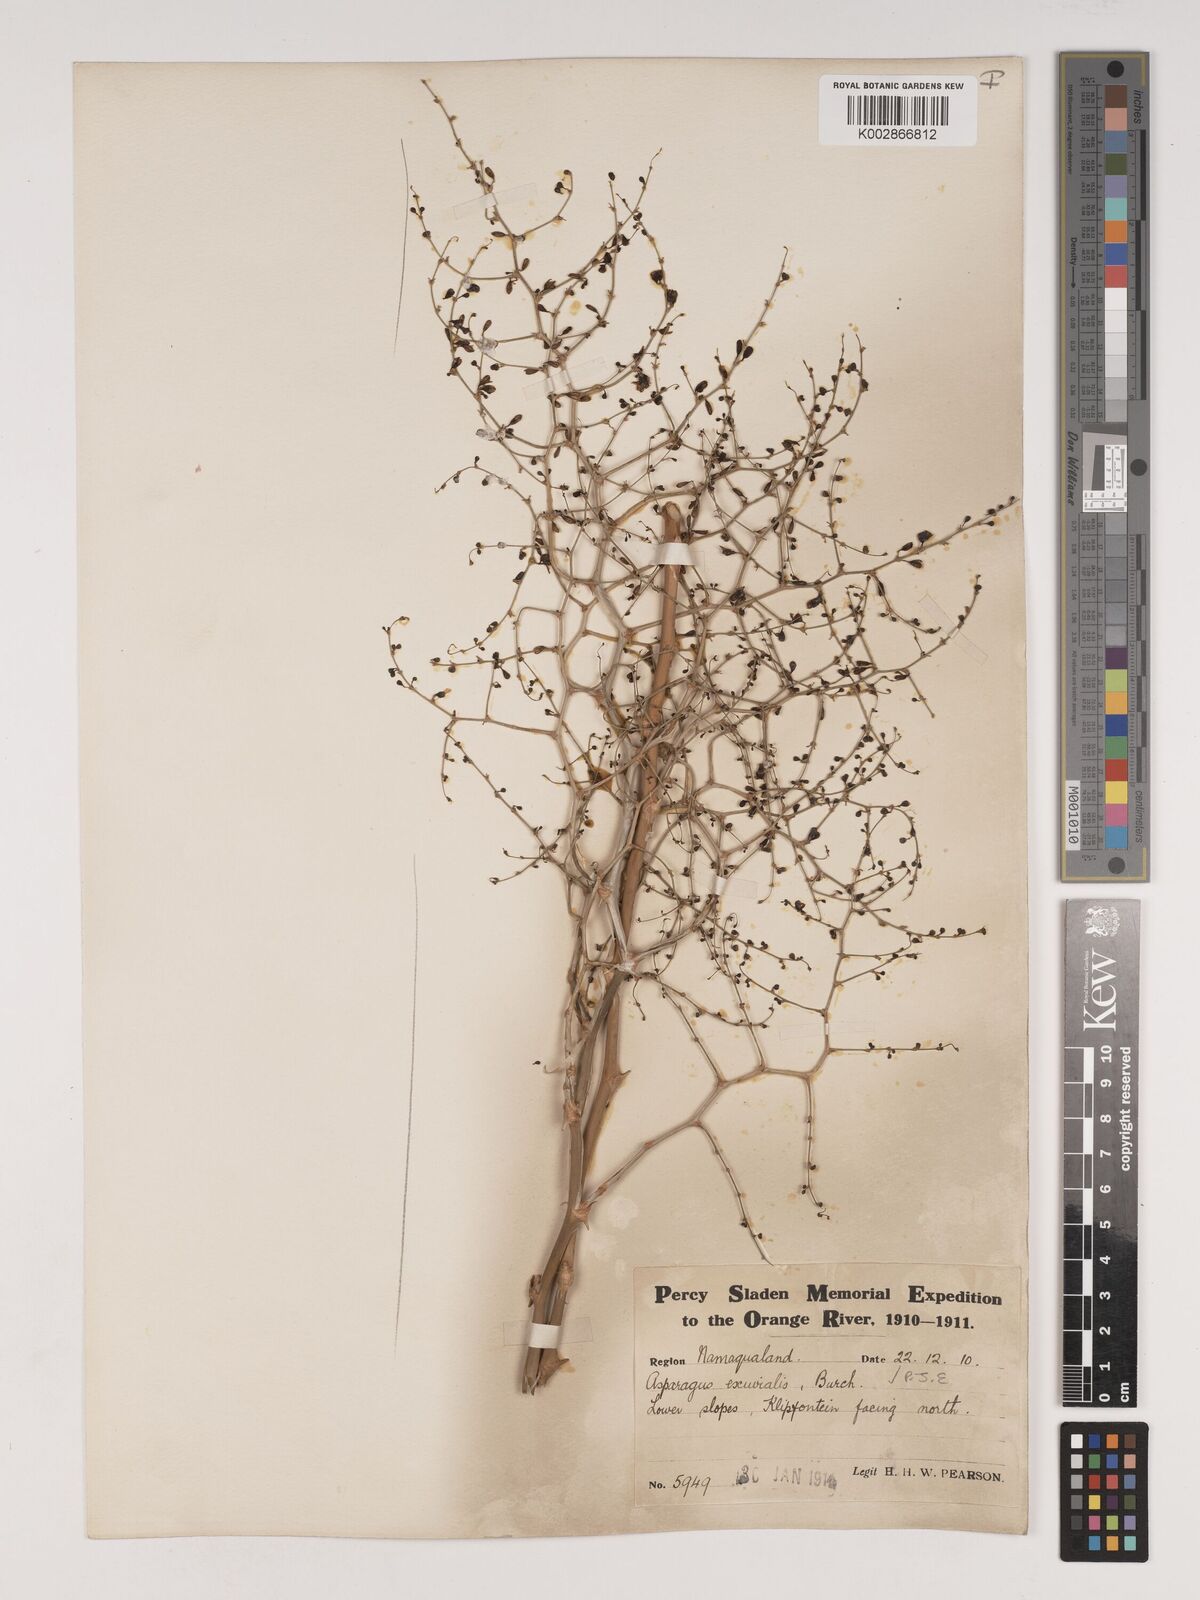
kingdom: Plantae
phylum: Tracheophyta
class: Liliopsida
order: Asparagales
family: Asparagaceae
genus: Asparagus
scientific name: Asparagus exuvialis
